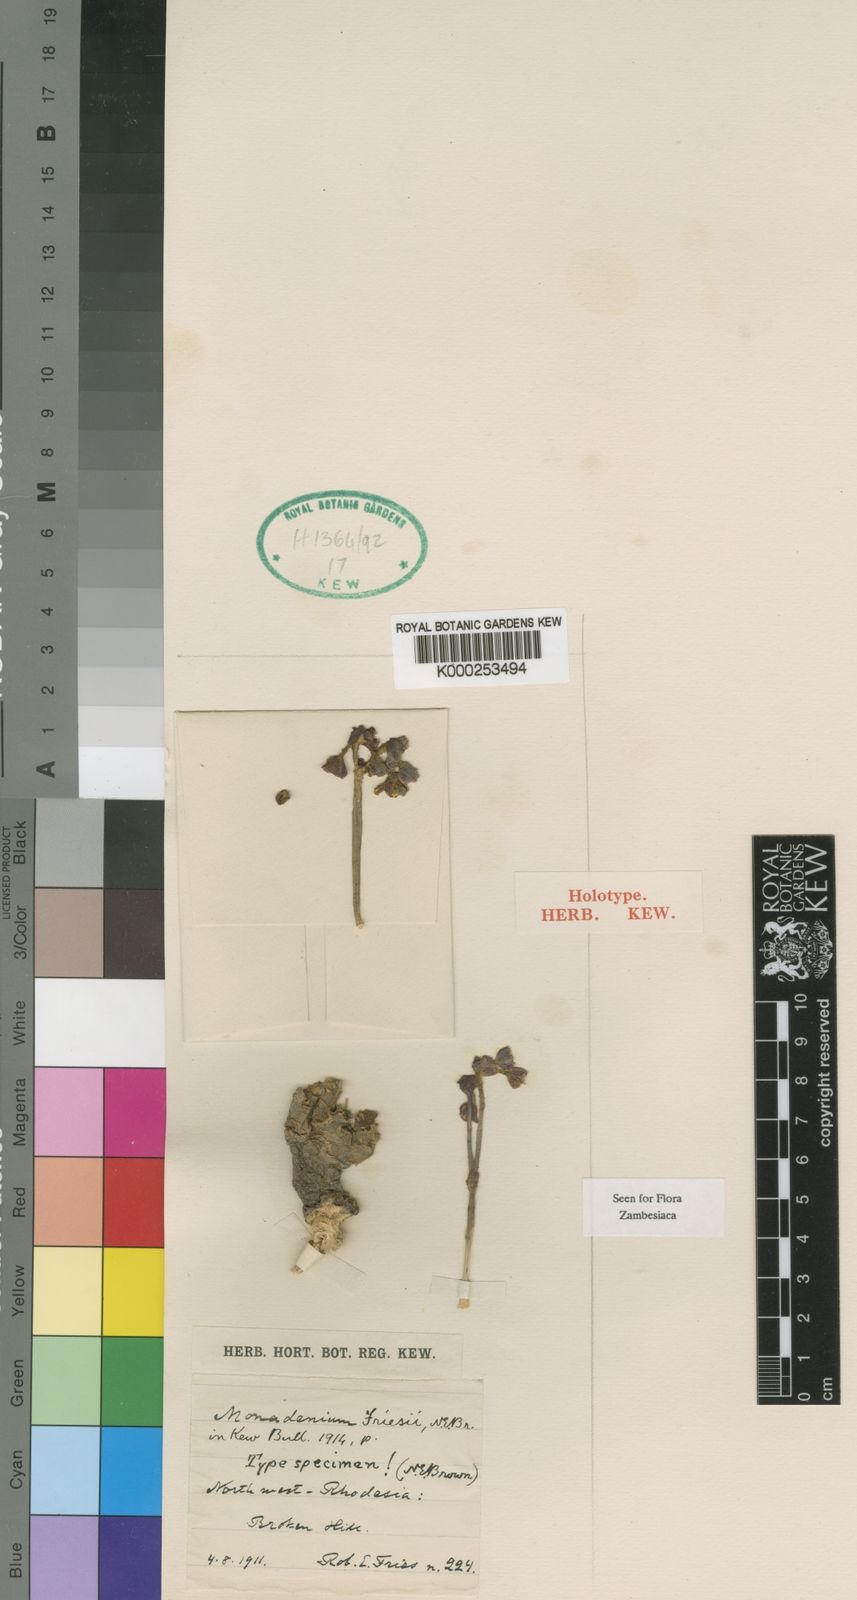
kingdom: Plantae
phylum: Tracheophyta
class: Magnoliopsida
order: Malpighiales
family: Euphorbiaceae
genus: Euphorbia
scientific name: Euphorbia friesii
